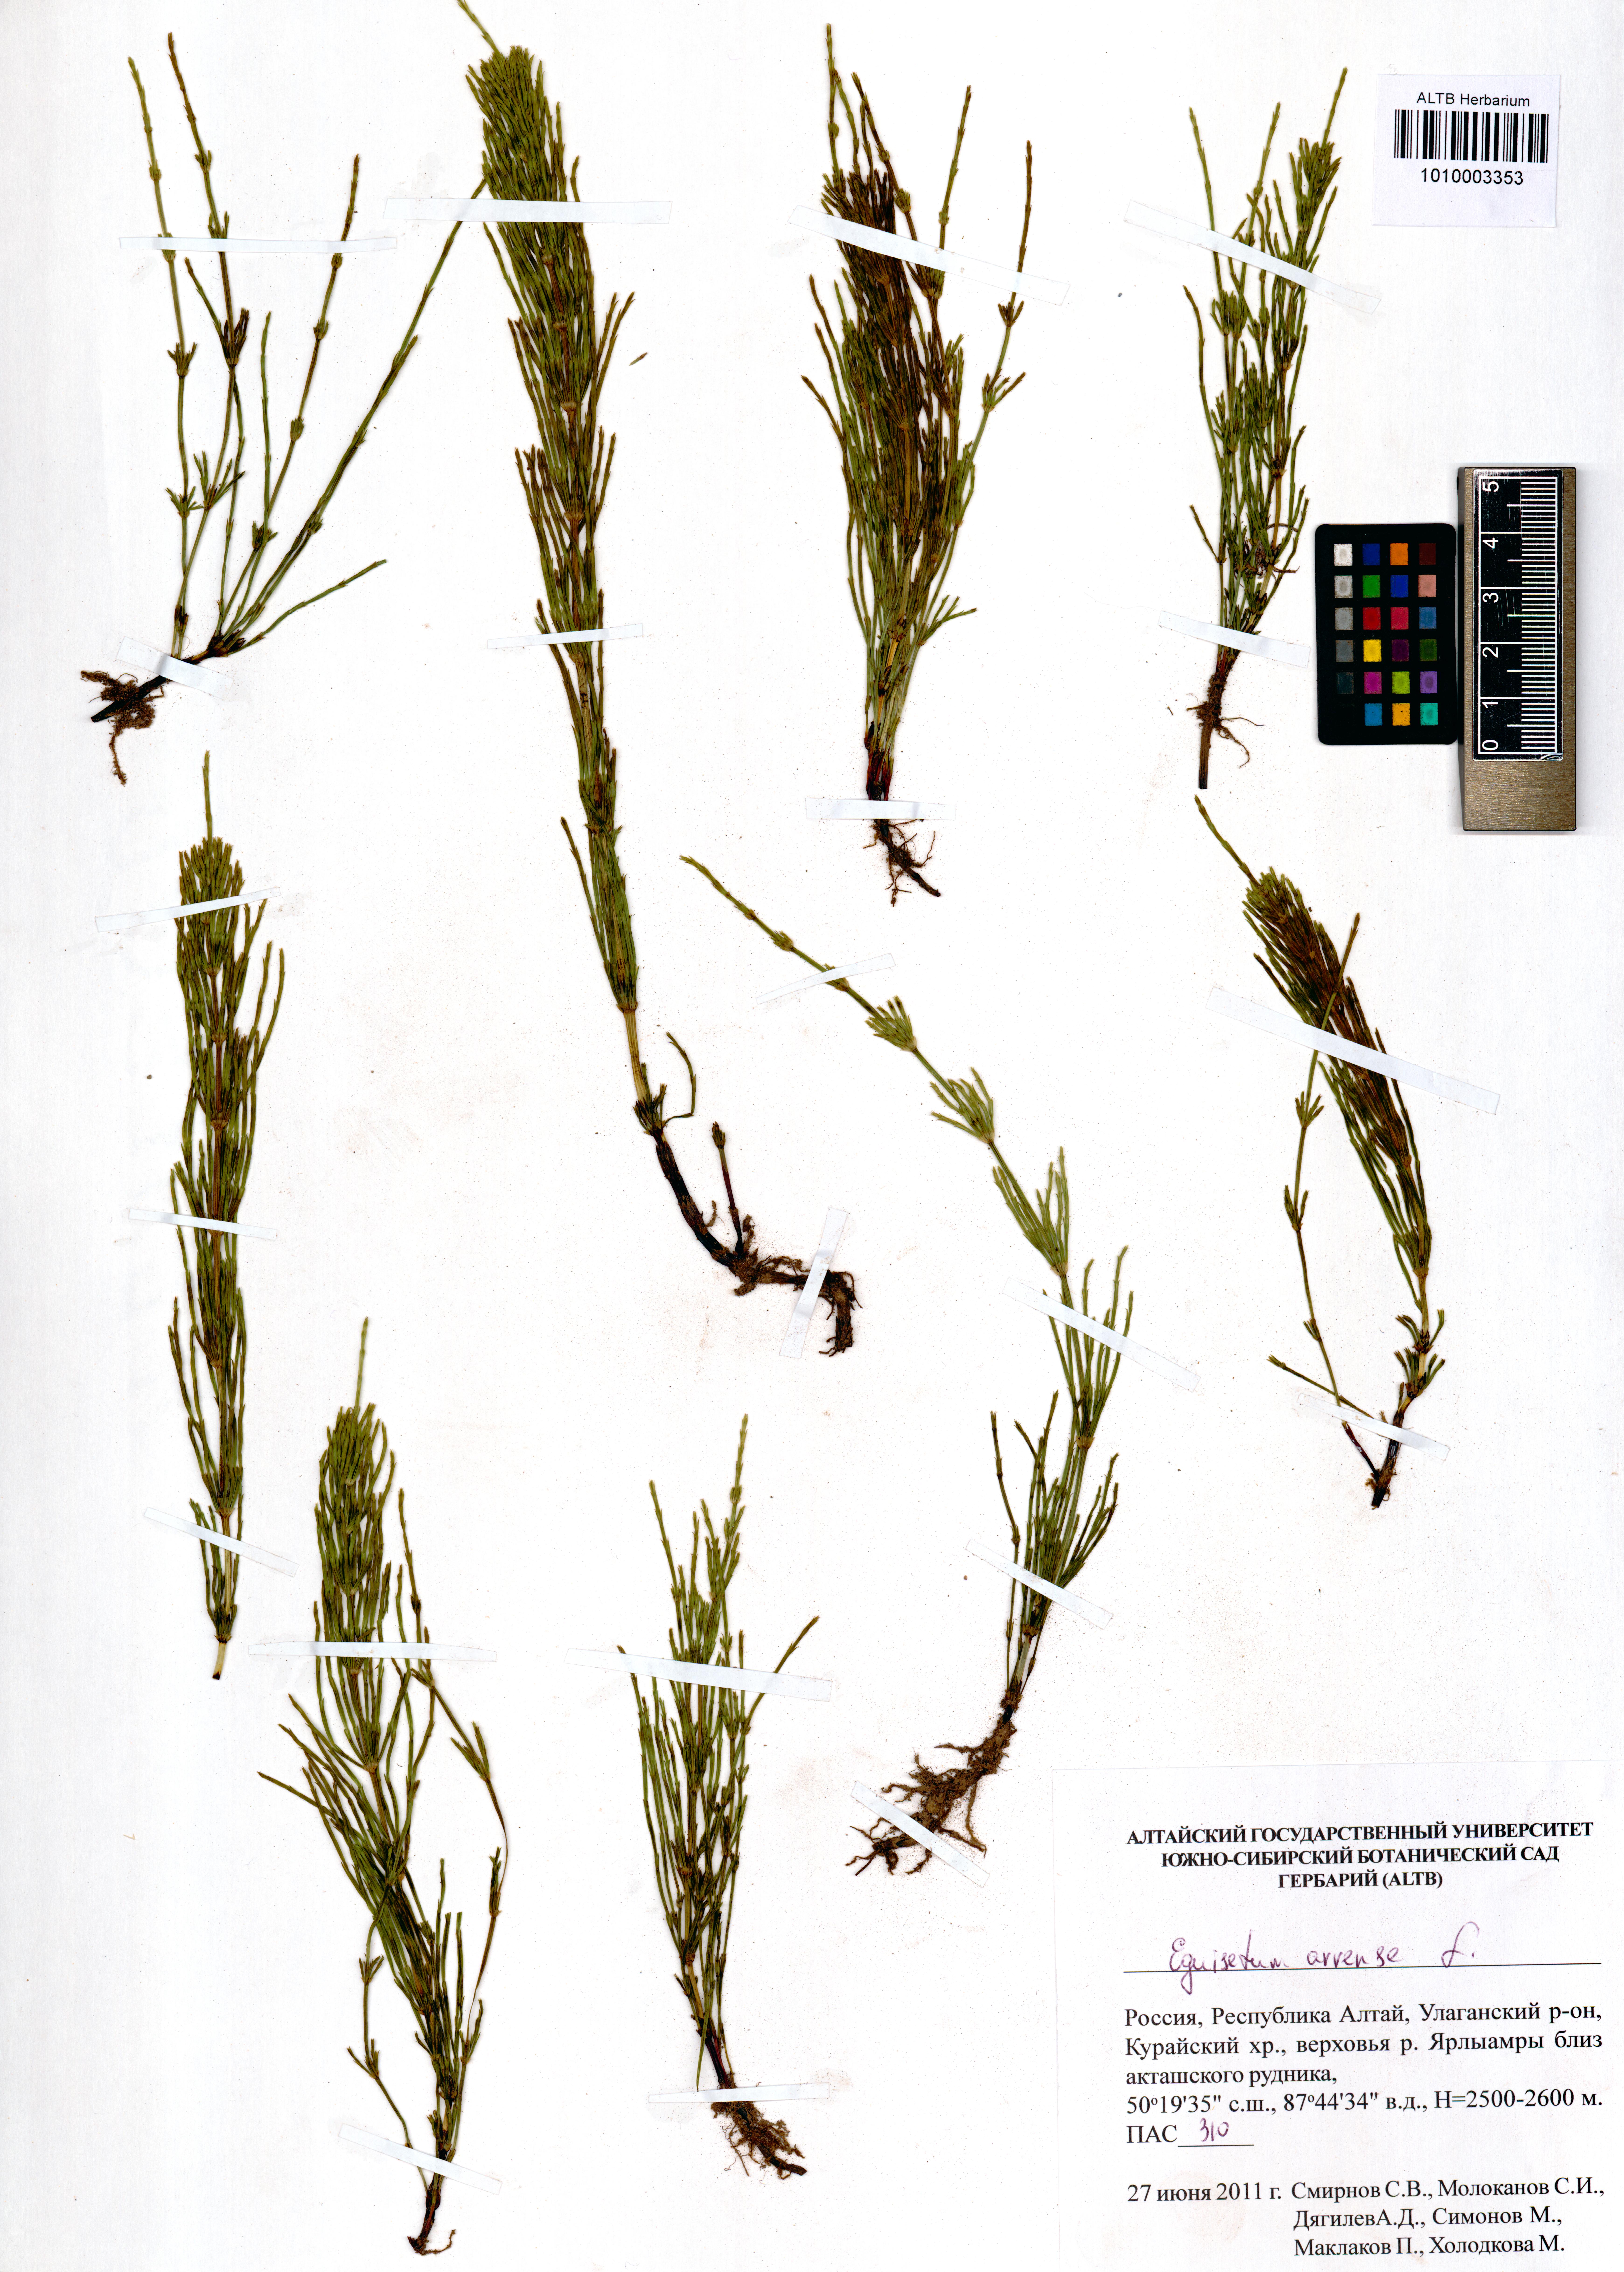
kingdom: Plantae
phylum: Tracheophyta
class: Polypodiopsida
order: Equisetales
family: Equisetaceae
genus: Equisetum
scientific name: Equisetum arvense
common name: Field horsetail
